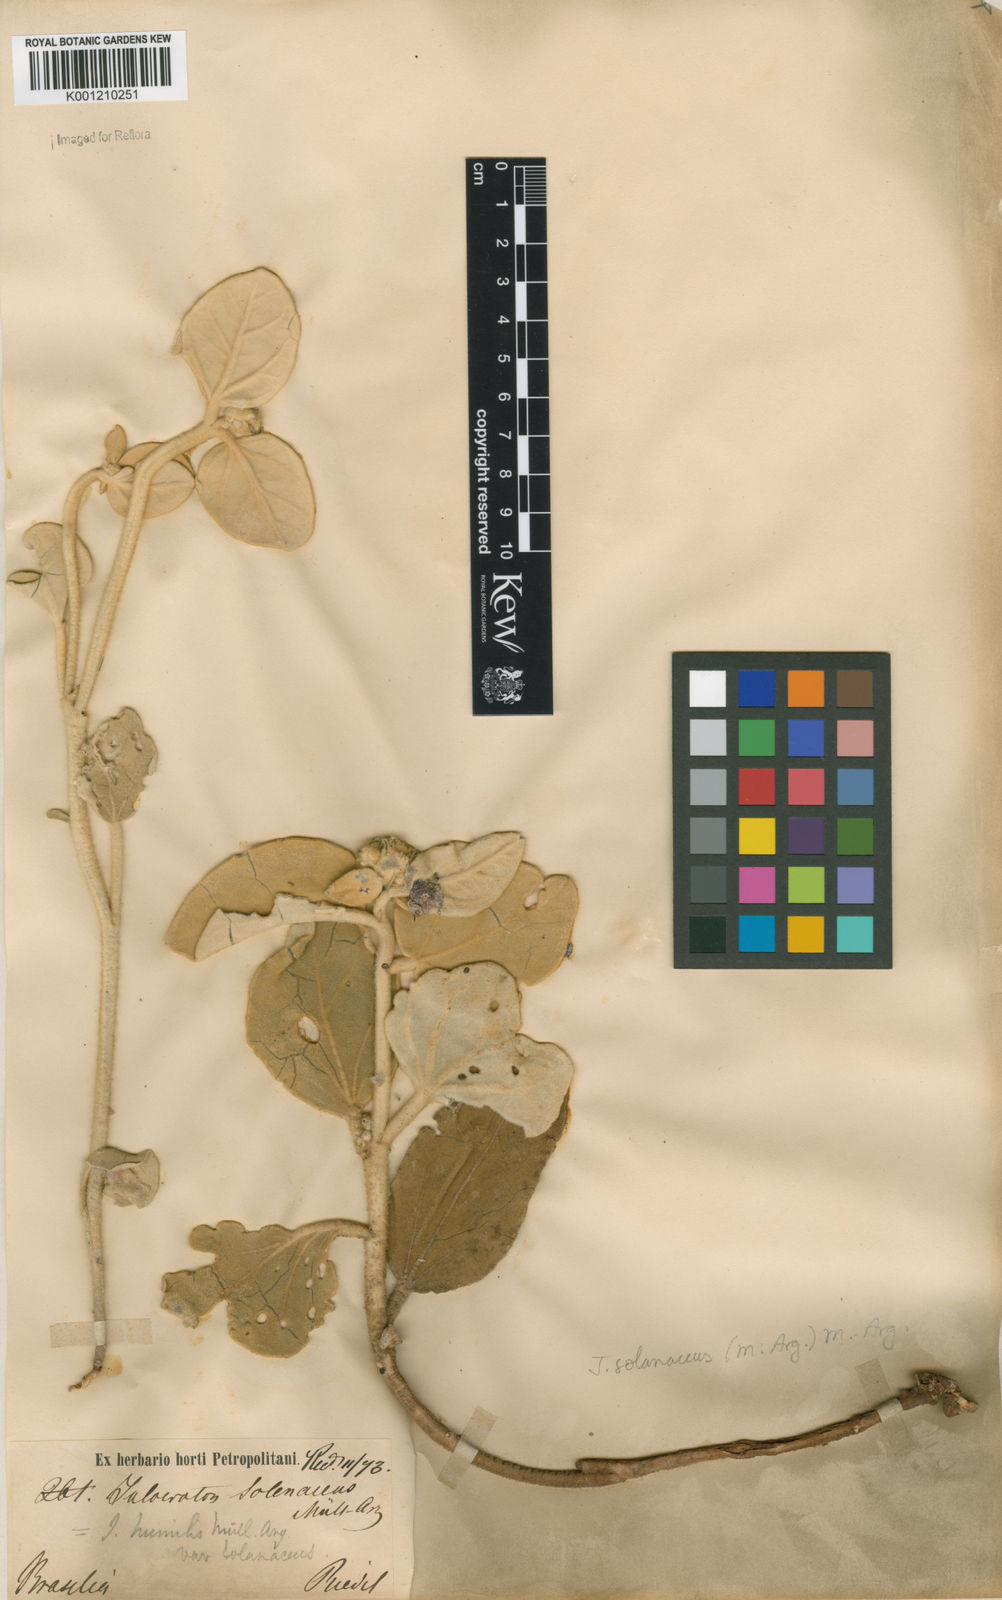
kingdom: Plantae
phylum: Tracheophyta
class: Magnoliopsida
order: Malpighiales
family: Euphorbiaceae
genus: Croton
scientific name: Croton
